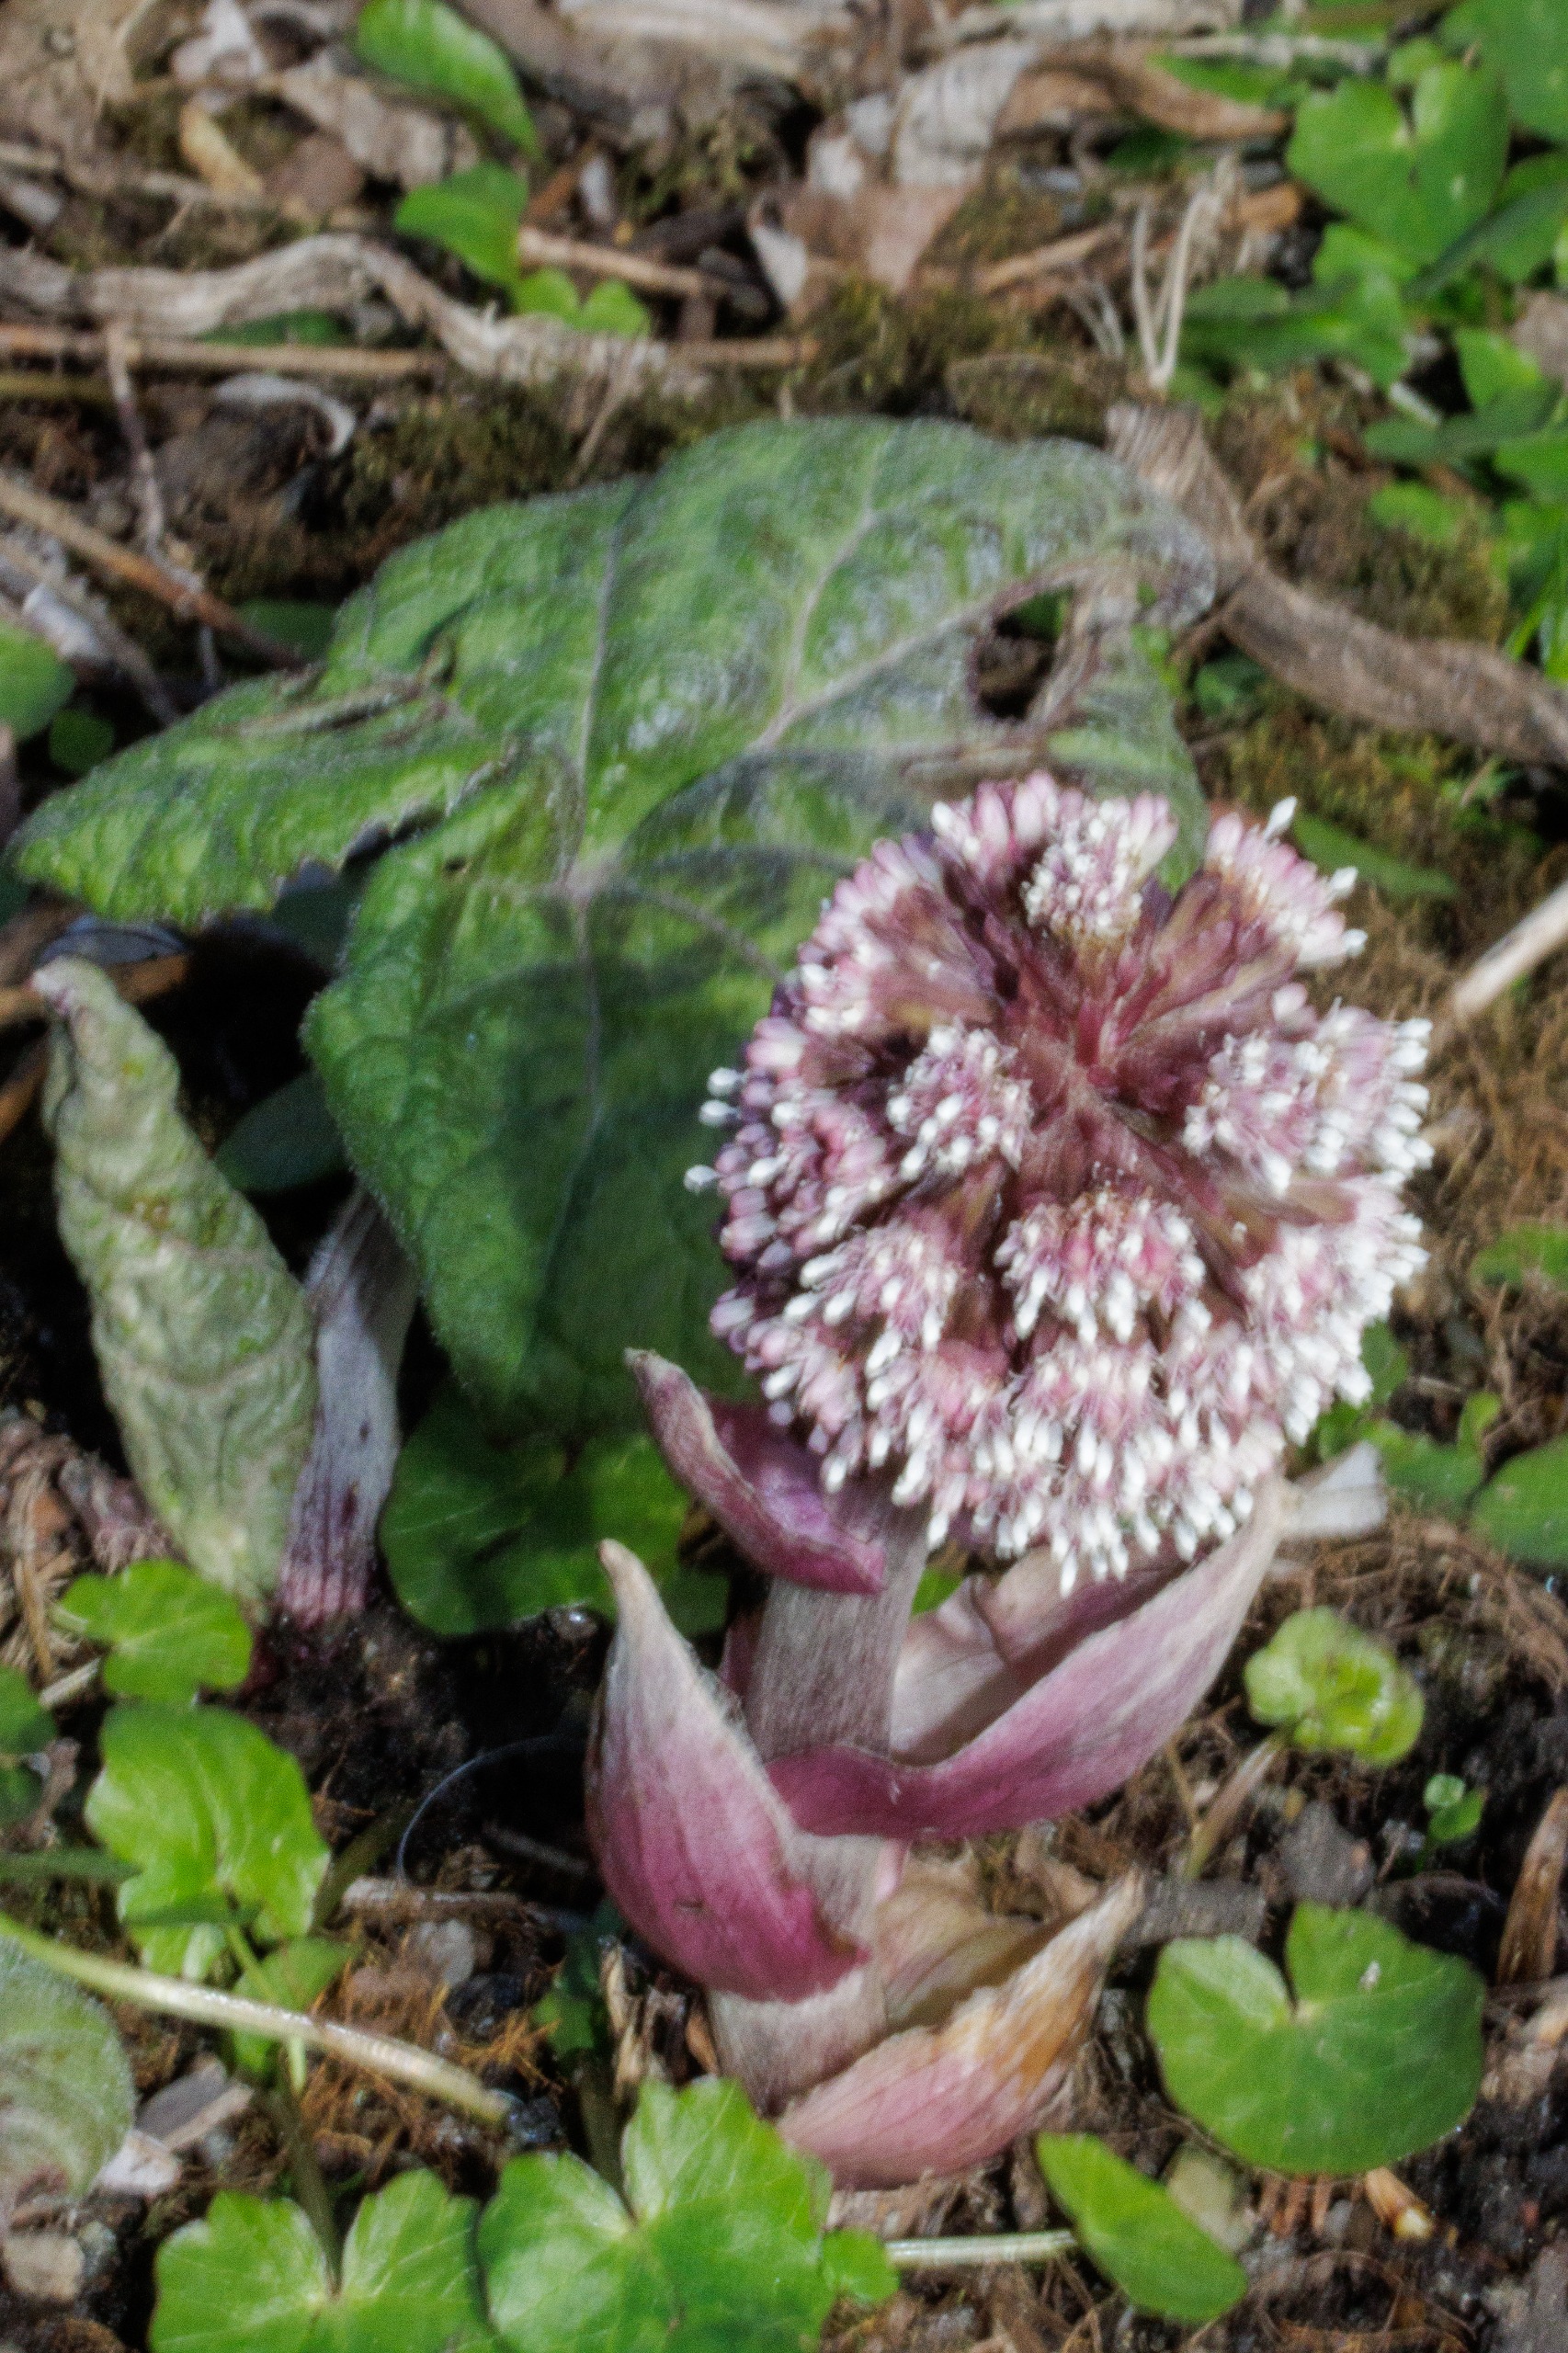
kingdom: Plantae
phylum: Tracheophyta
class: Magnoliopsida
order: Asterales
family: Asteraceae
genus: Petasites
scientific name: Petasites hybridus
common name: Rød hestehov
